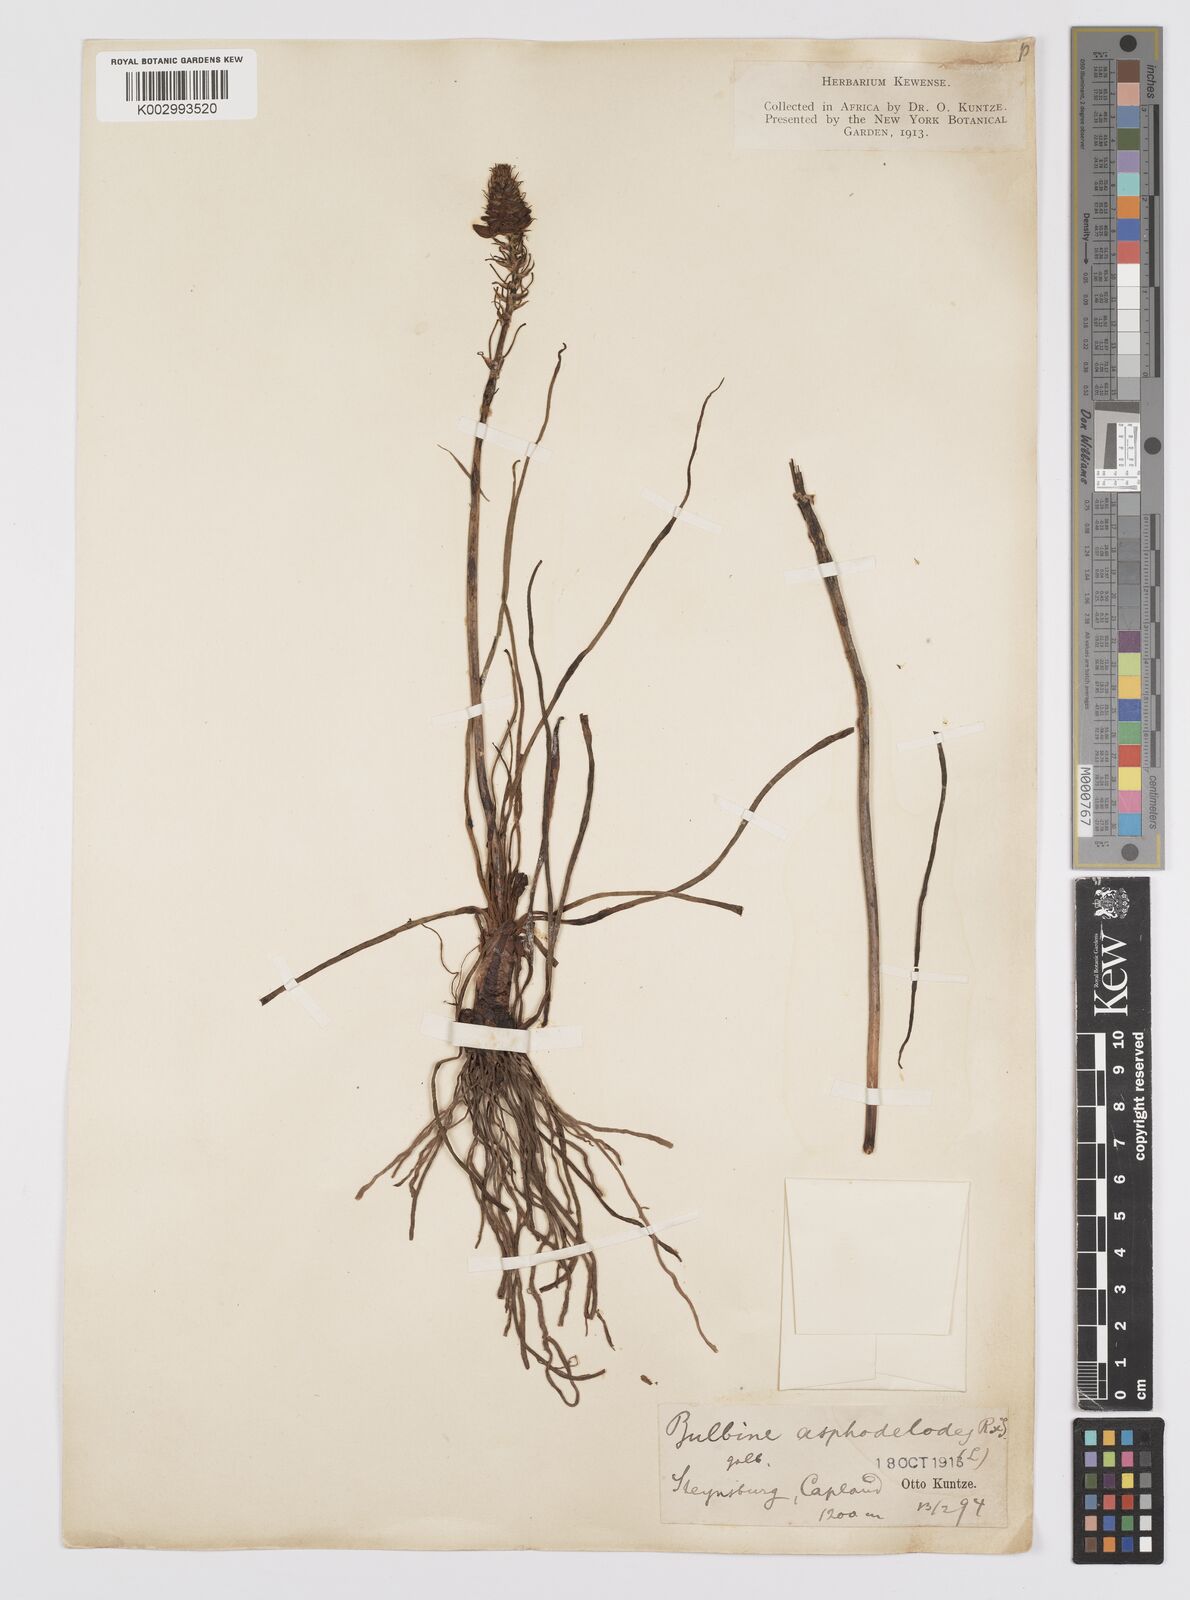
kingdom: Plantae
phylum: Tracheophyta
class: Liliopsida
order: Asparagales
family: Asphodelaceae
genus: Bulbine
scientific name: Bulbine asphodeloides
